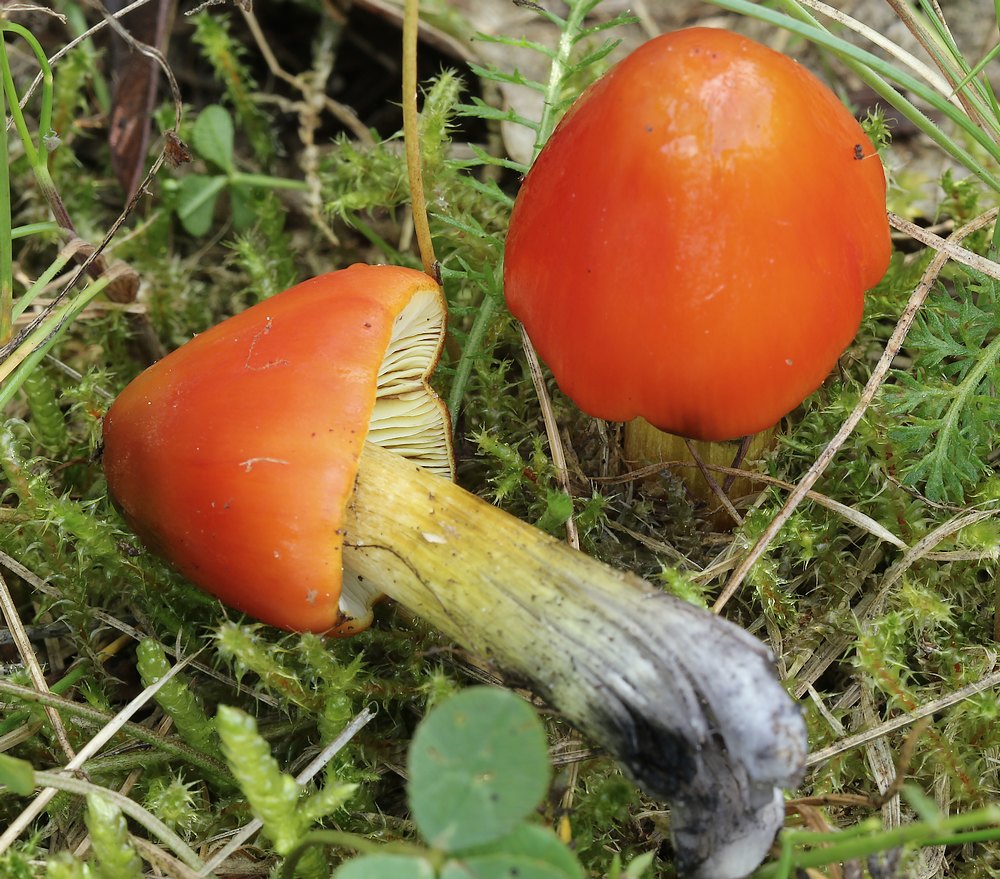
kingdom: Fungi
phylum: Basidiomycota
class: Agaricomycetes
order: Agaricales
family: Hygrophoraceae
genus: Hygrocybe
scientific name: Hygrocybe conica
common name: kegle-vokshat
